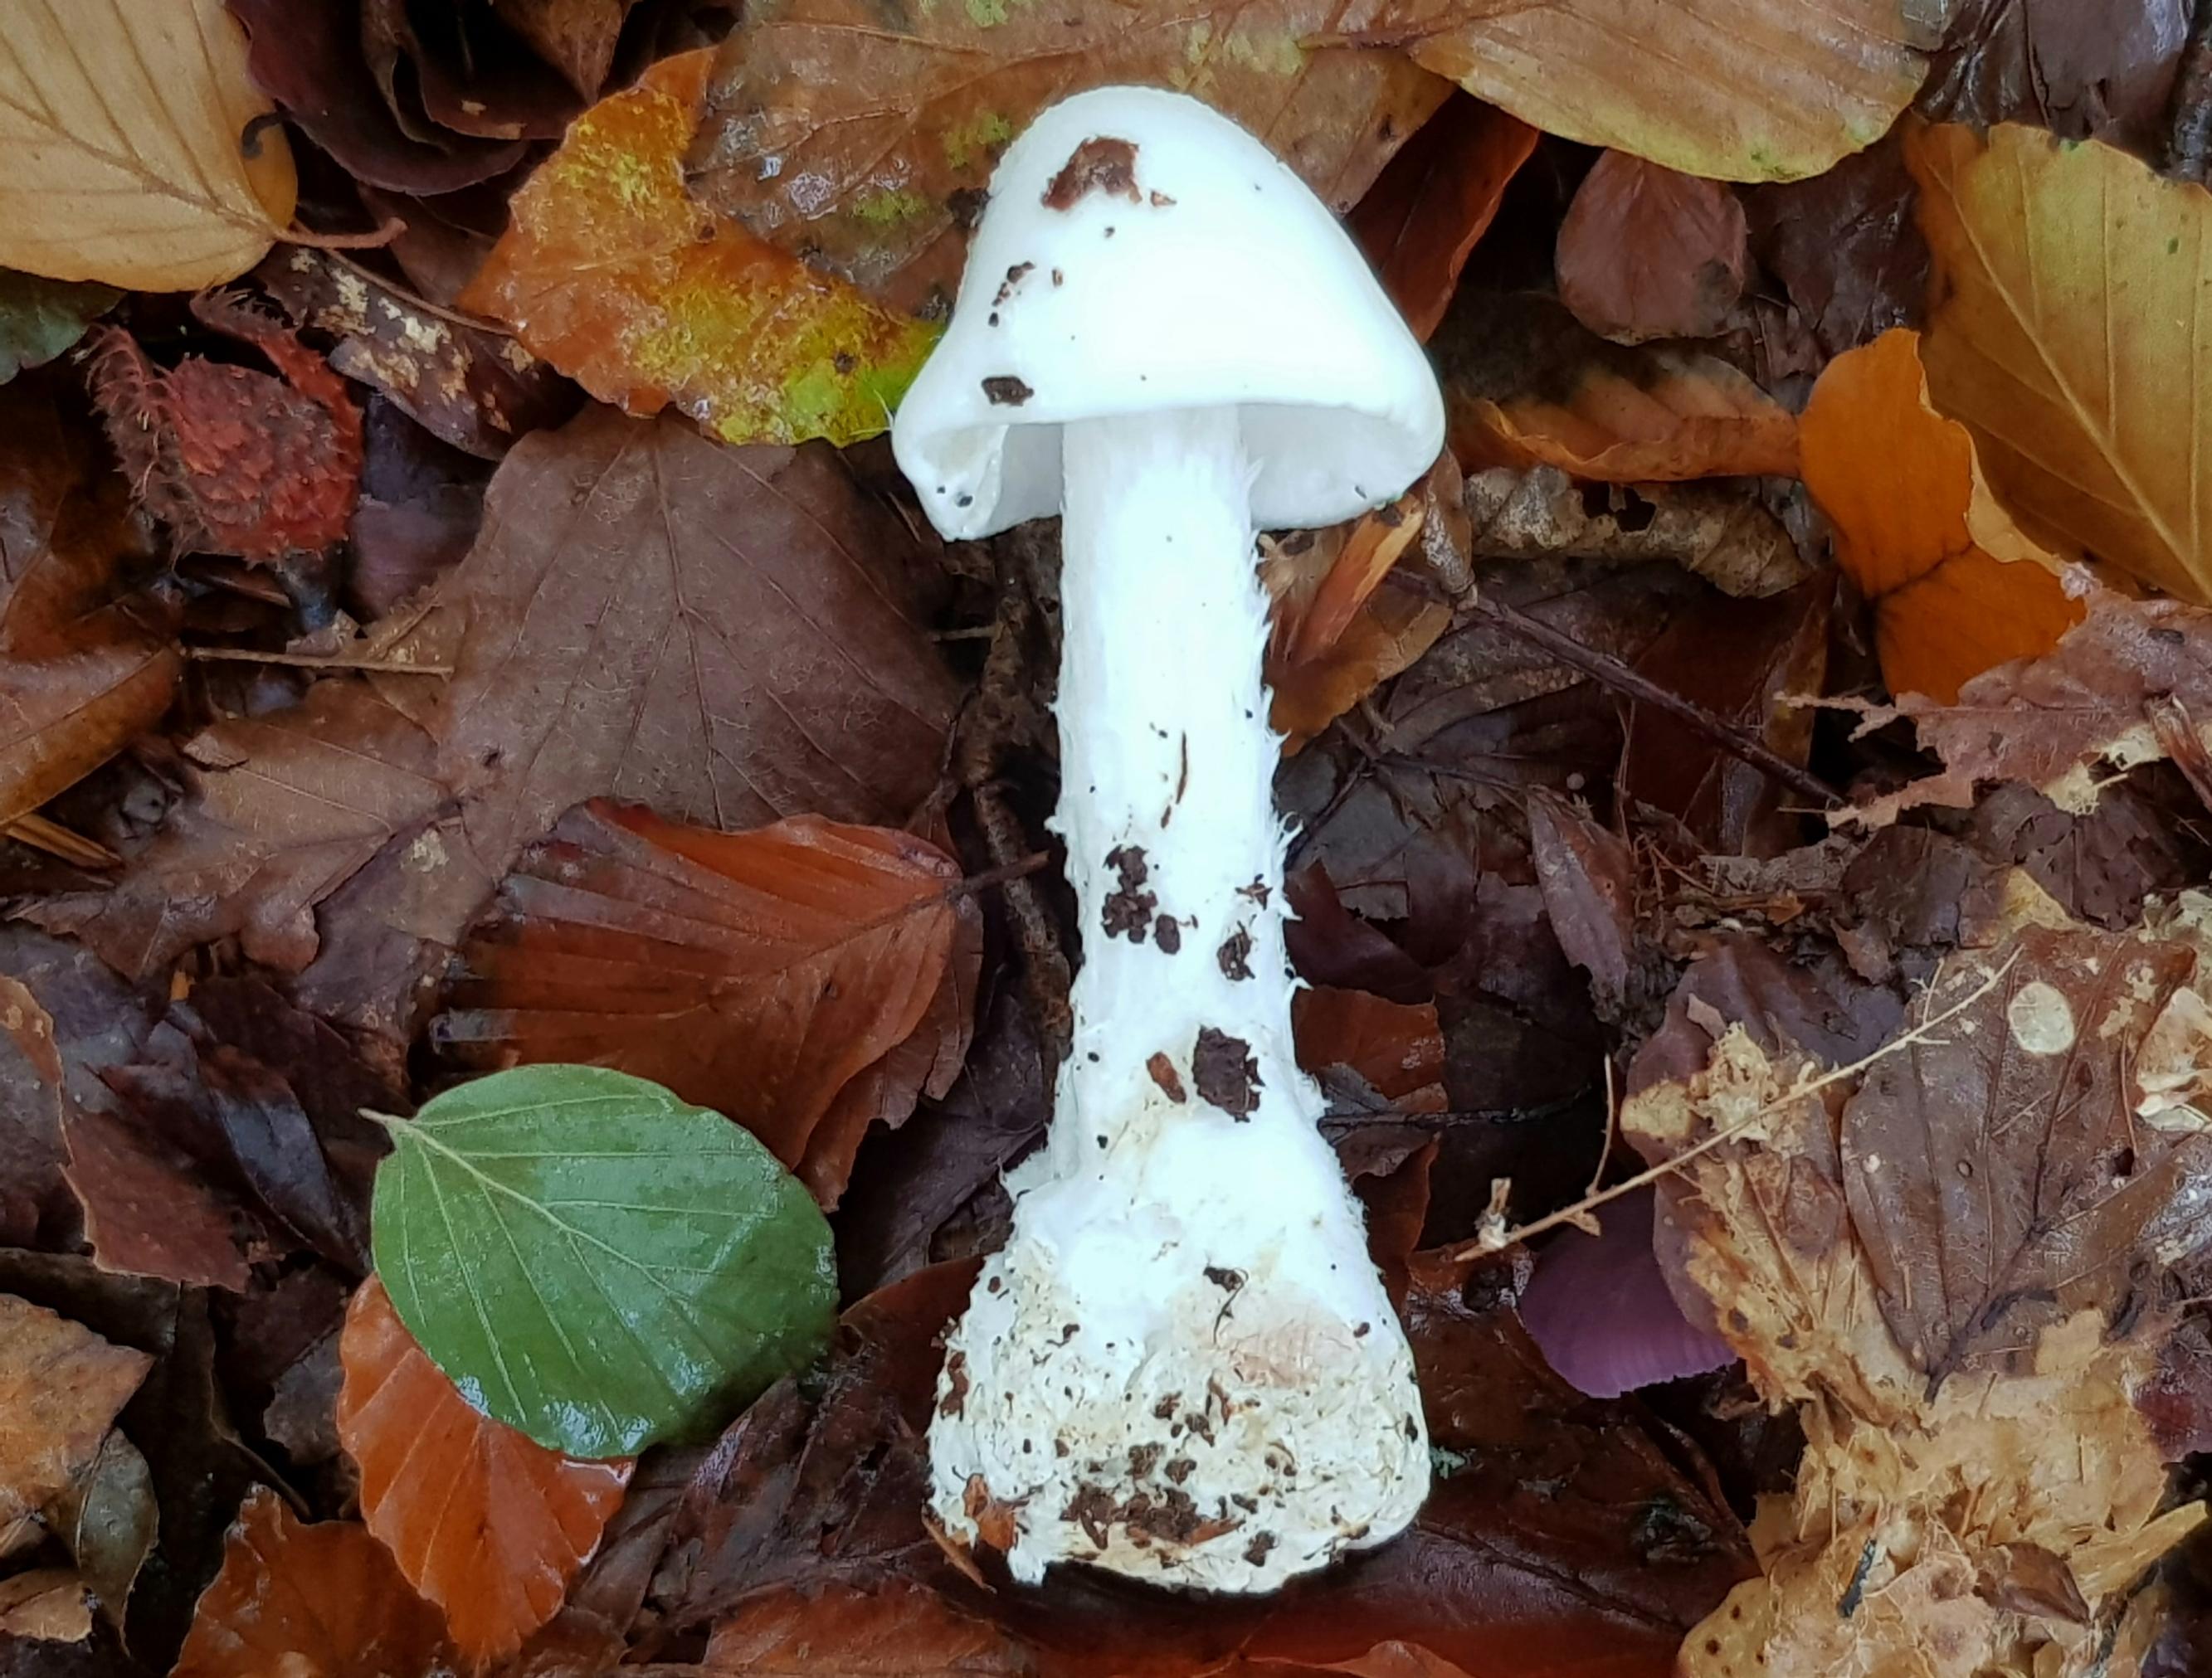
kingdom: Fungi
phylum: Basidiomycota
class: Agaricomycetes
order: Agaricales
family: Amanitaceae
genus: Amanita
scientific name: Amanita virosa
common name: snehvid fluesvamp
